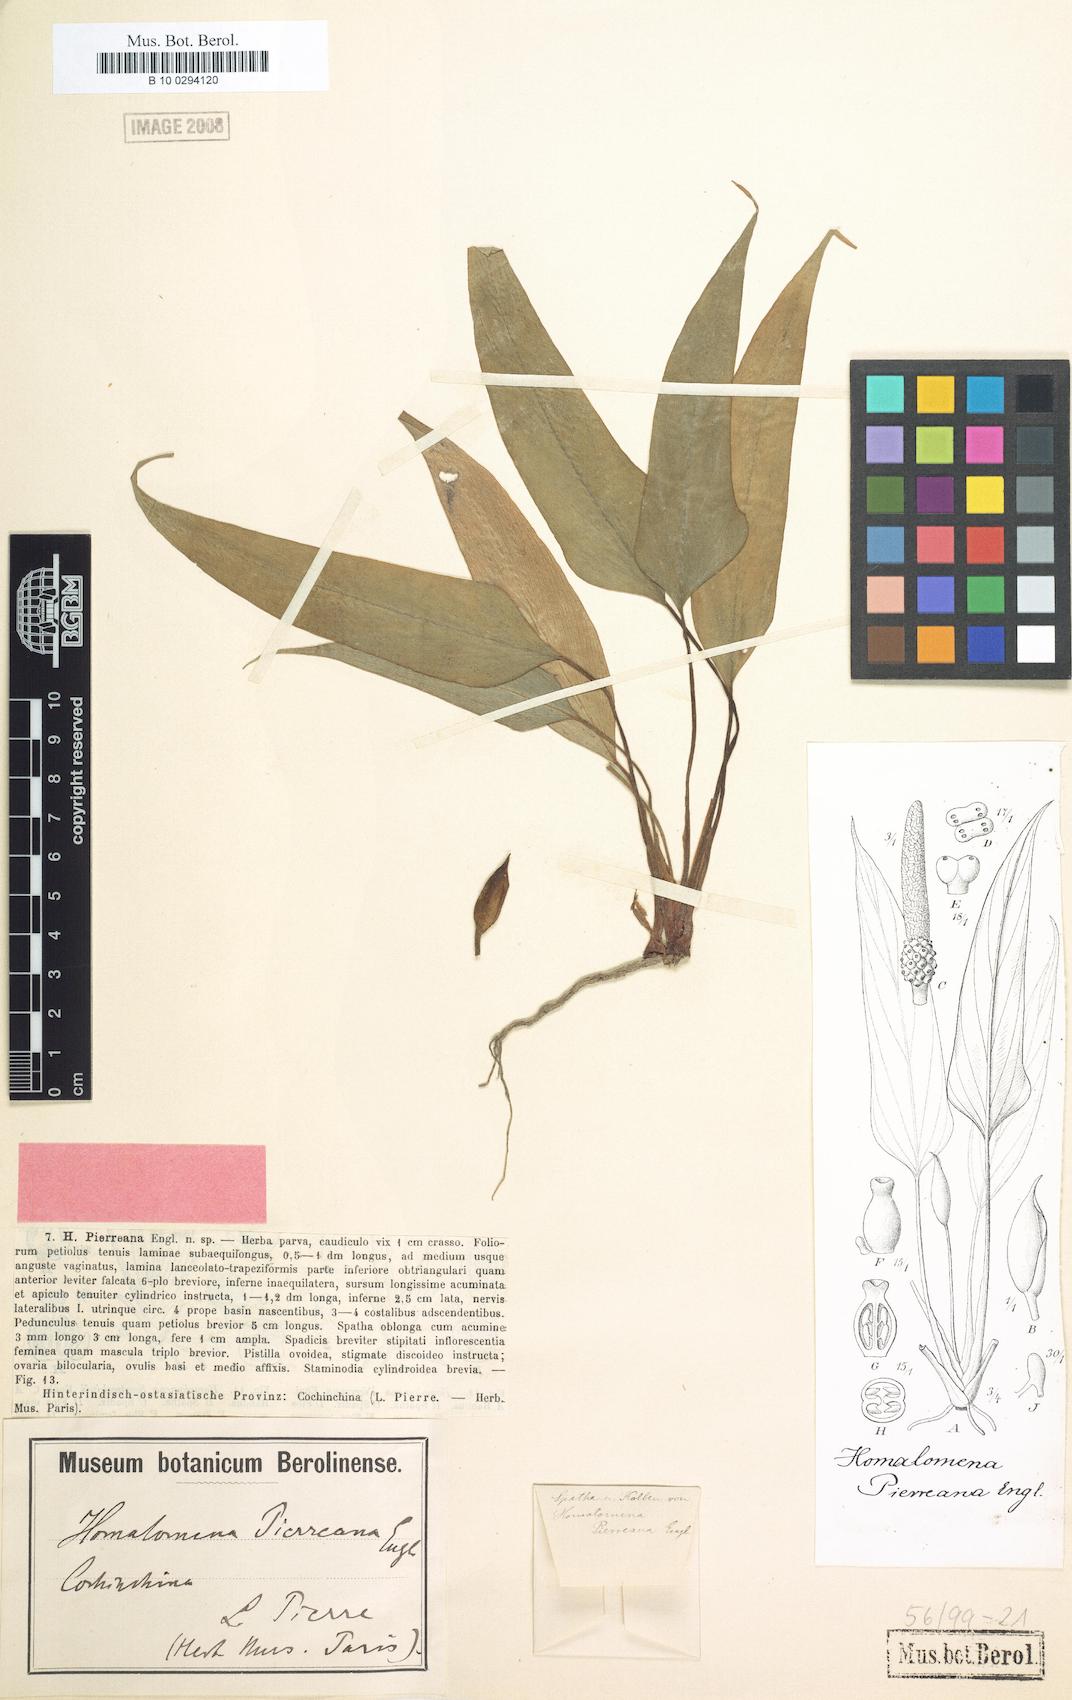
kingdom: Plantae
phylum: Tracheophyta
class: Liliopsida
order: Alismatales
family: Araceae
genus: Homalomena
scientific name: Homalomena griffithii
